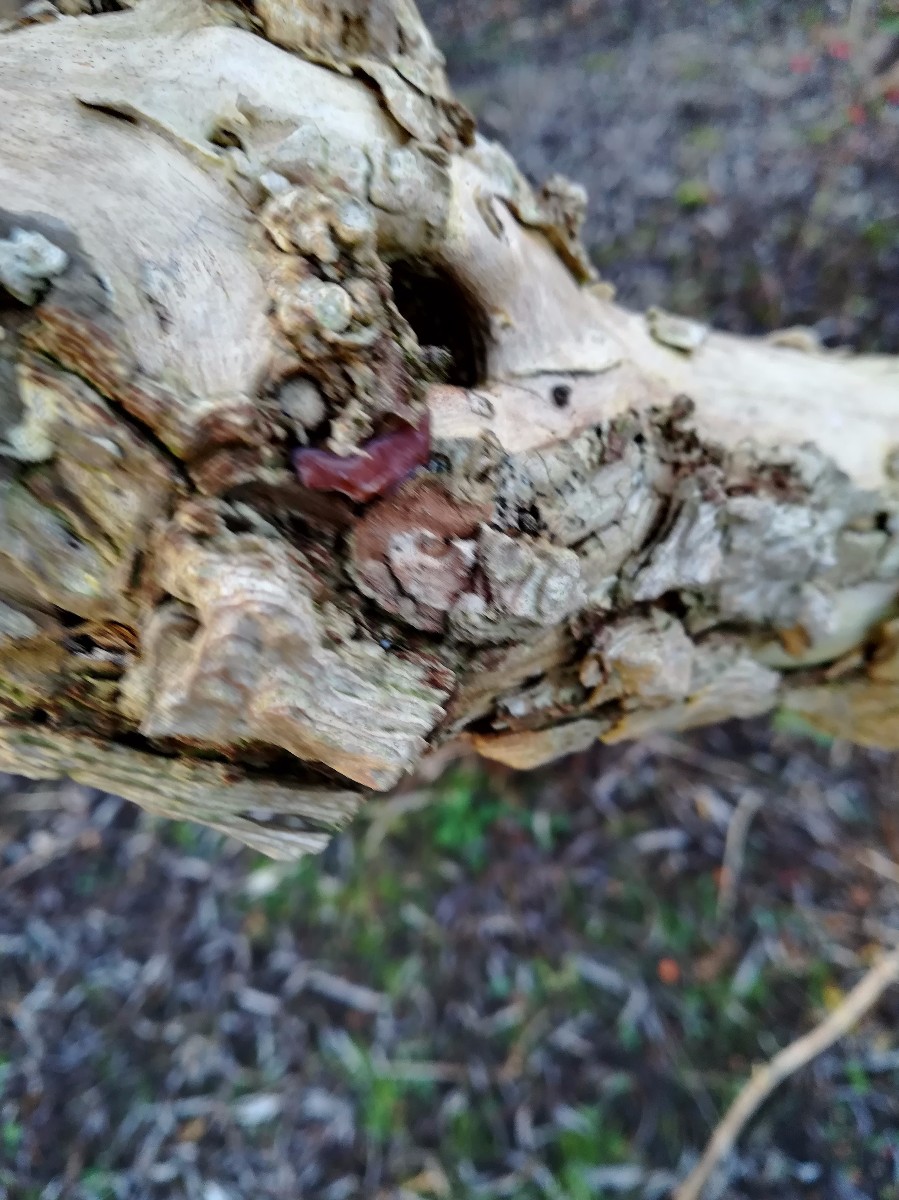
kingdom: Fungi
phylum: Basidiomycota
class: Agaricomycetes
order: Auriculariales
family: Auriculariaceae
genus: Auricularia
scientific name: Auricularia auricula-judae
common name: almindelig judasøre
